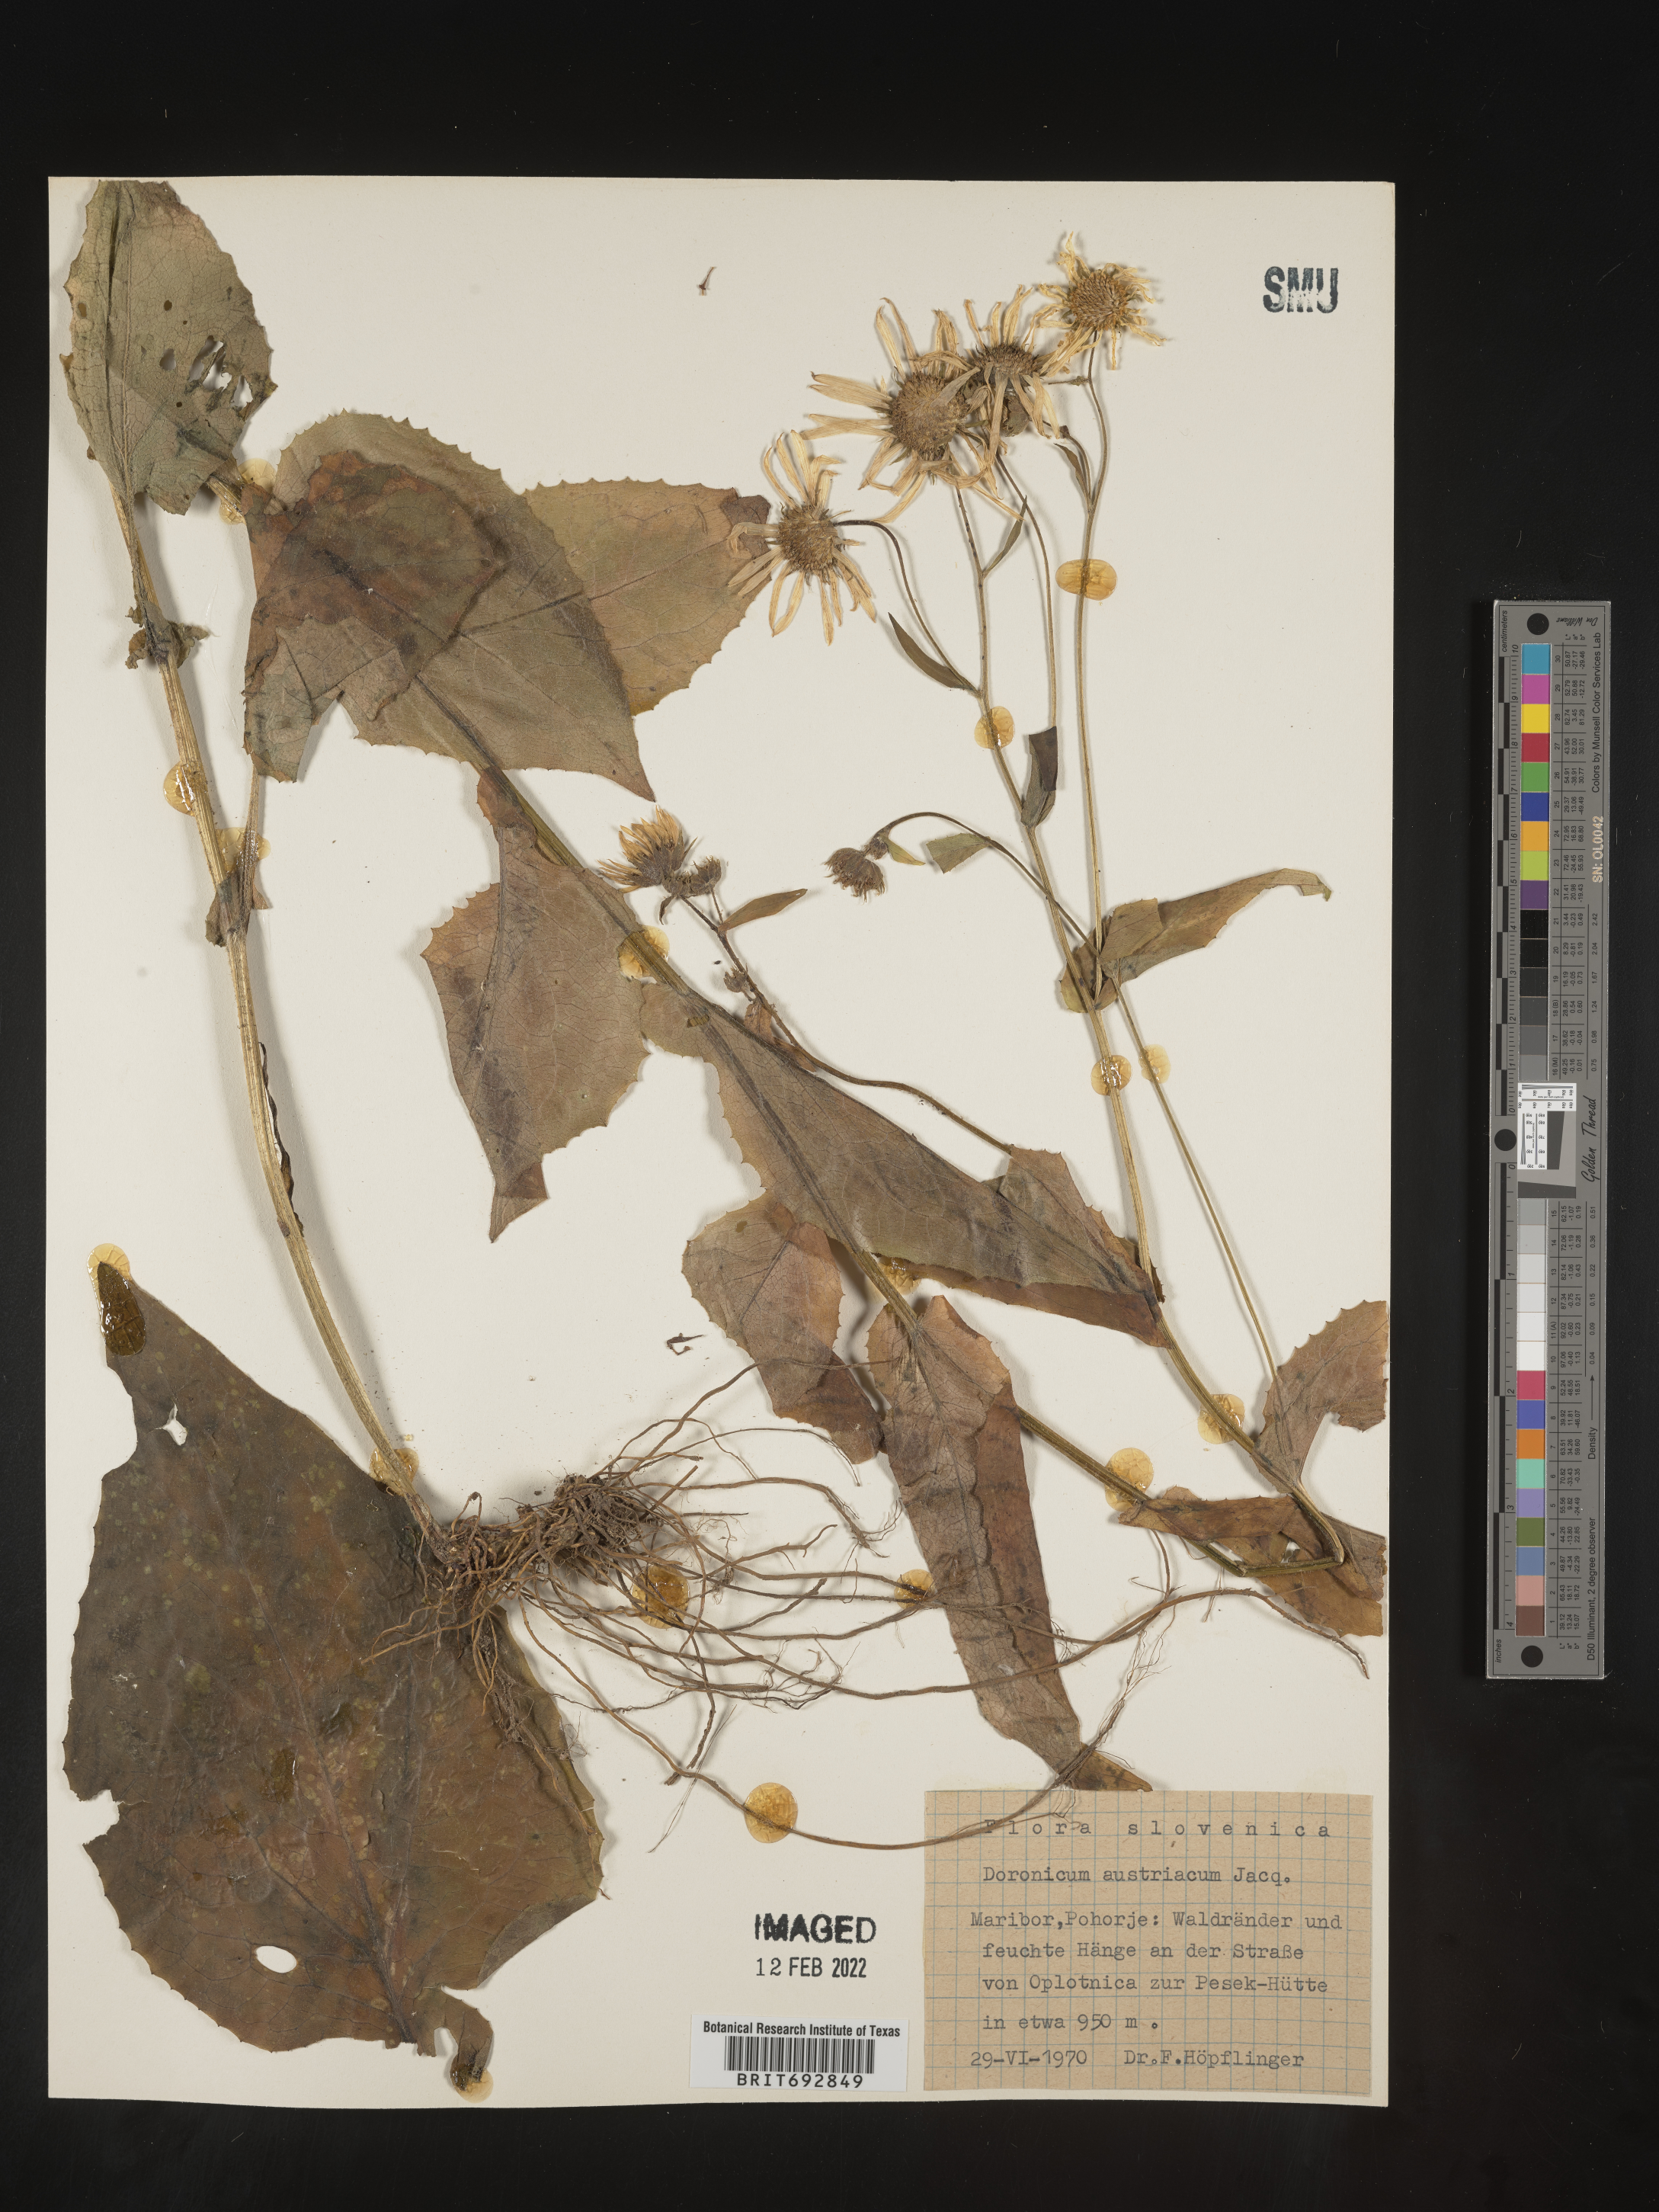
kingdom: Plantae
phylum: Tracheophyta
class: Magnoliopsida
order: Asterales
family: Asteraceae
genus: Doronicum
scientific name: Doronicum
